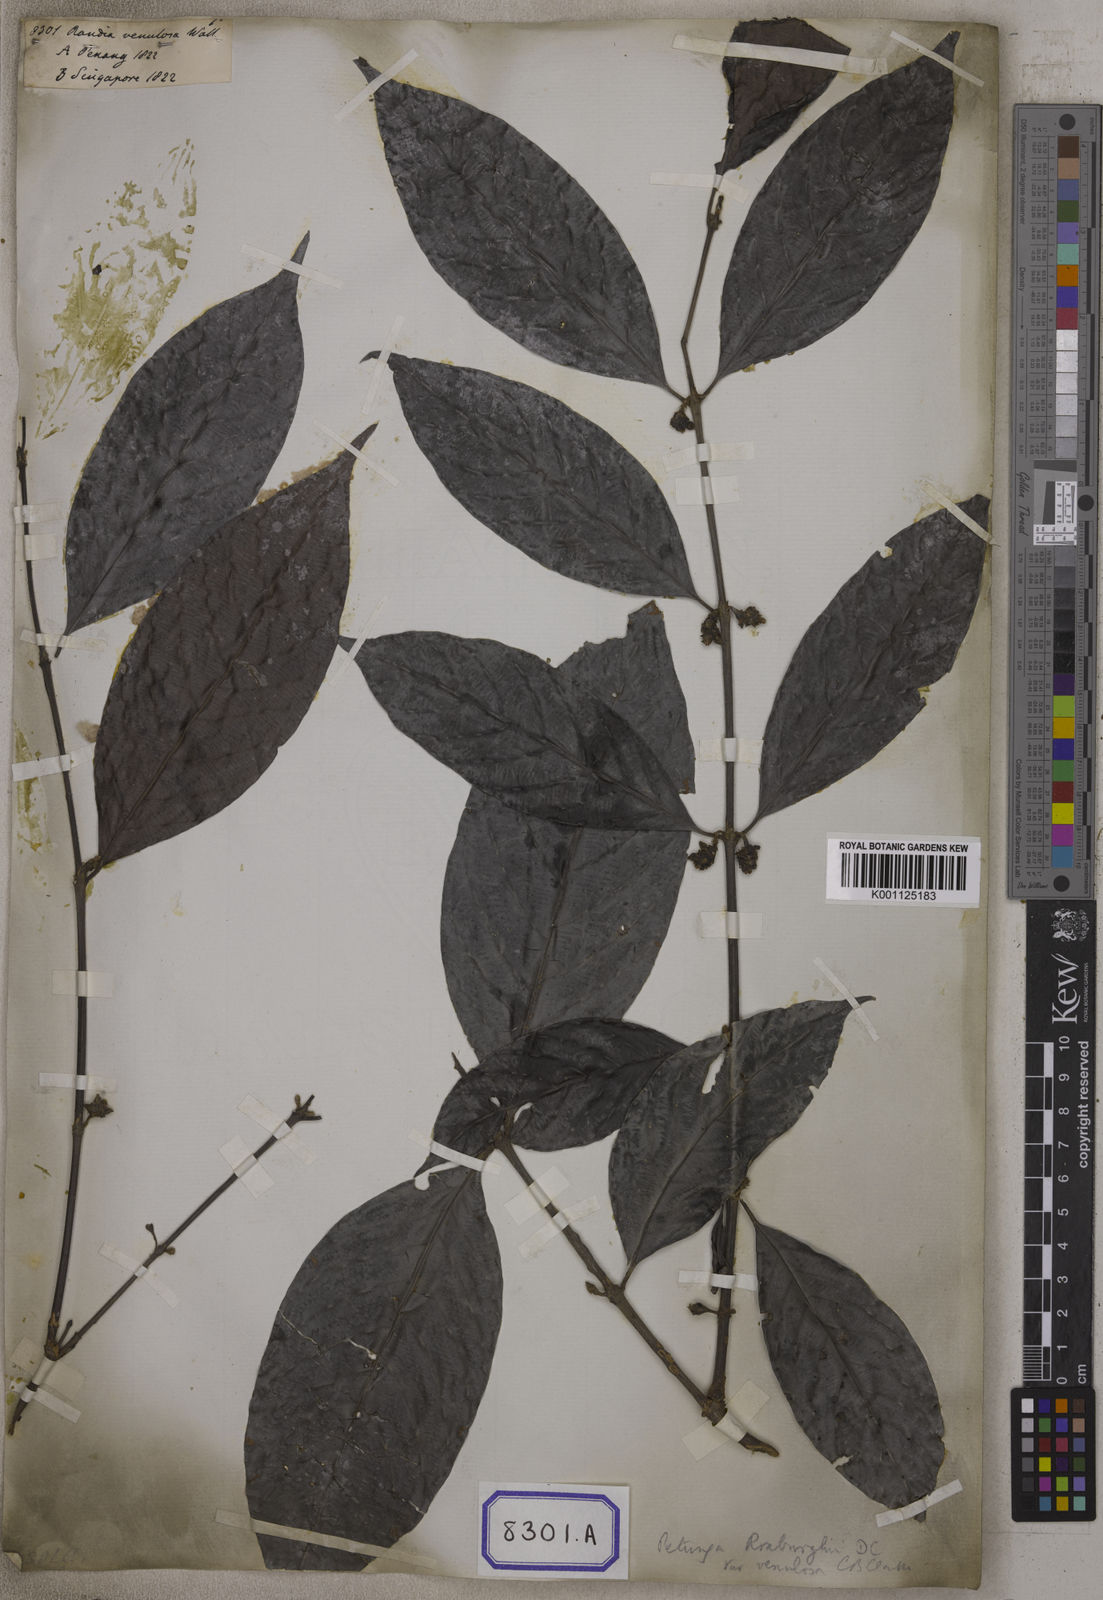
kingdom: Plantae
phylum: Tracheophyta
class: Magnoliopsida
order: Gentianales
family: Rubiaceae
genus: Hypobathrum
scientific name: Hypobathrum venulosum
